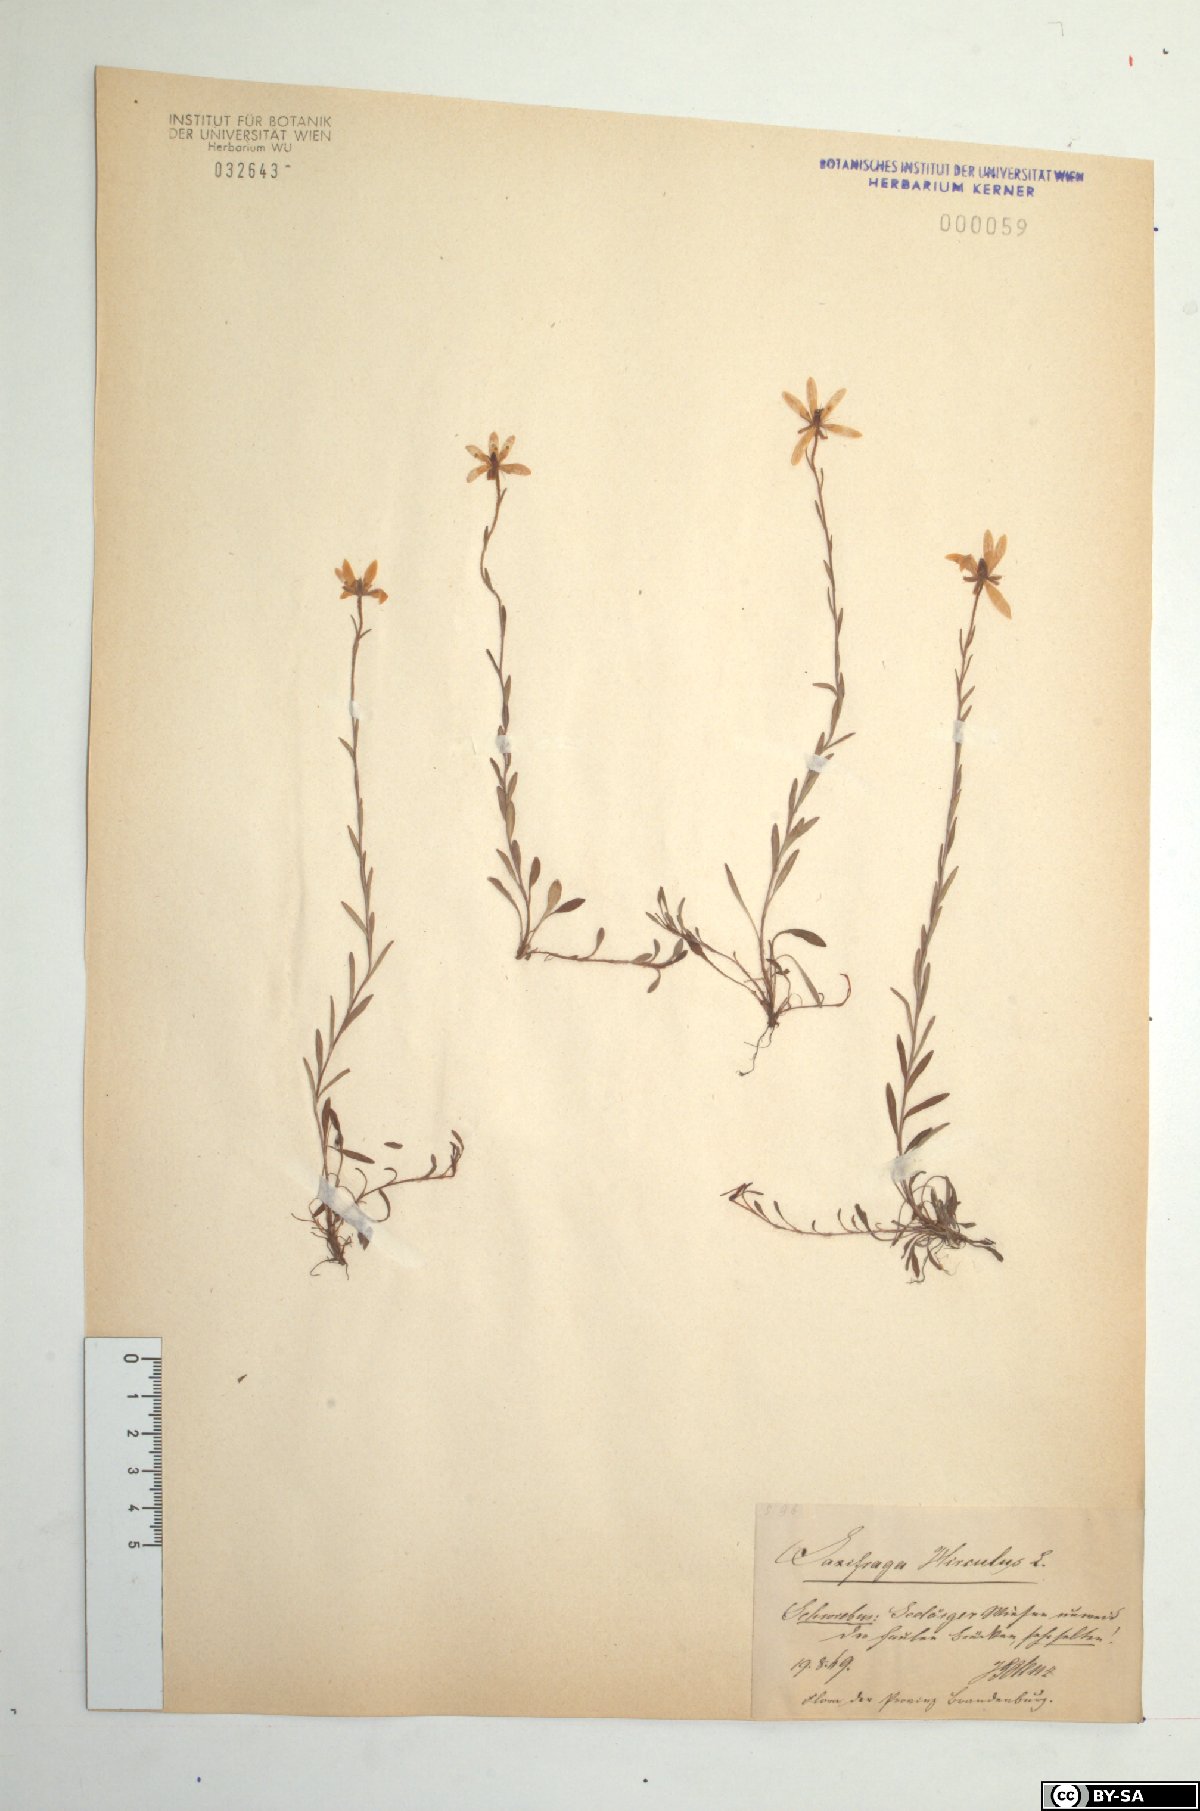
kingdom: Plantae
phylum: Tracheophyta
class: Magnoliopsida
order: Saxifragales
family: Saxifragaceae
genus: Saxifraga
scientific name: Saxifraga hirculus
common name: Yellow marsh saxifrage
